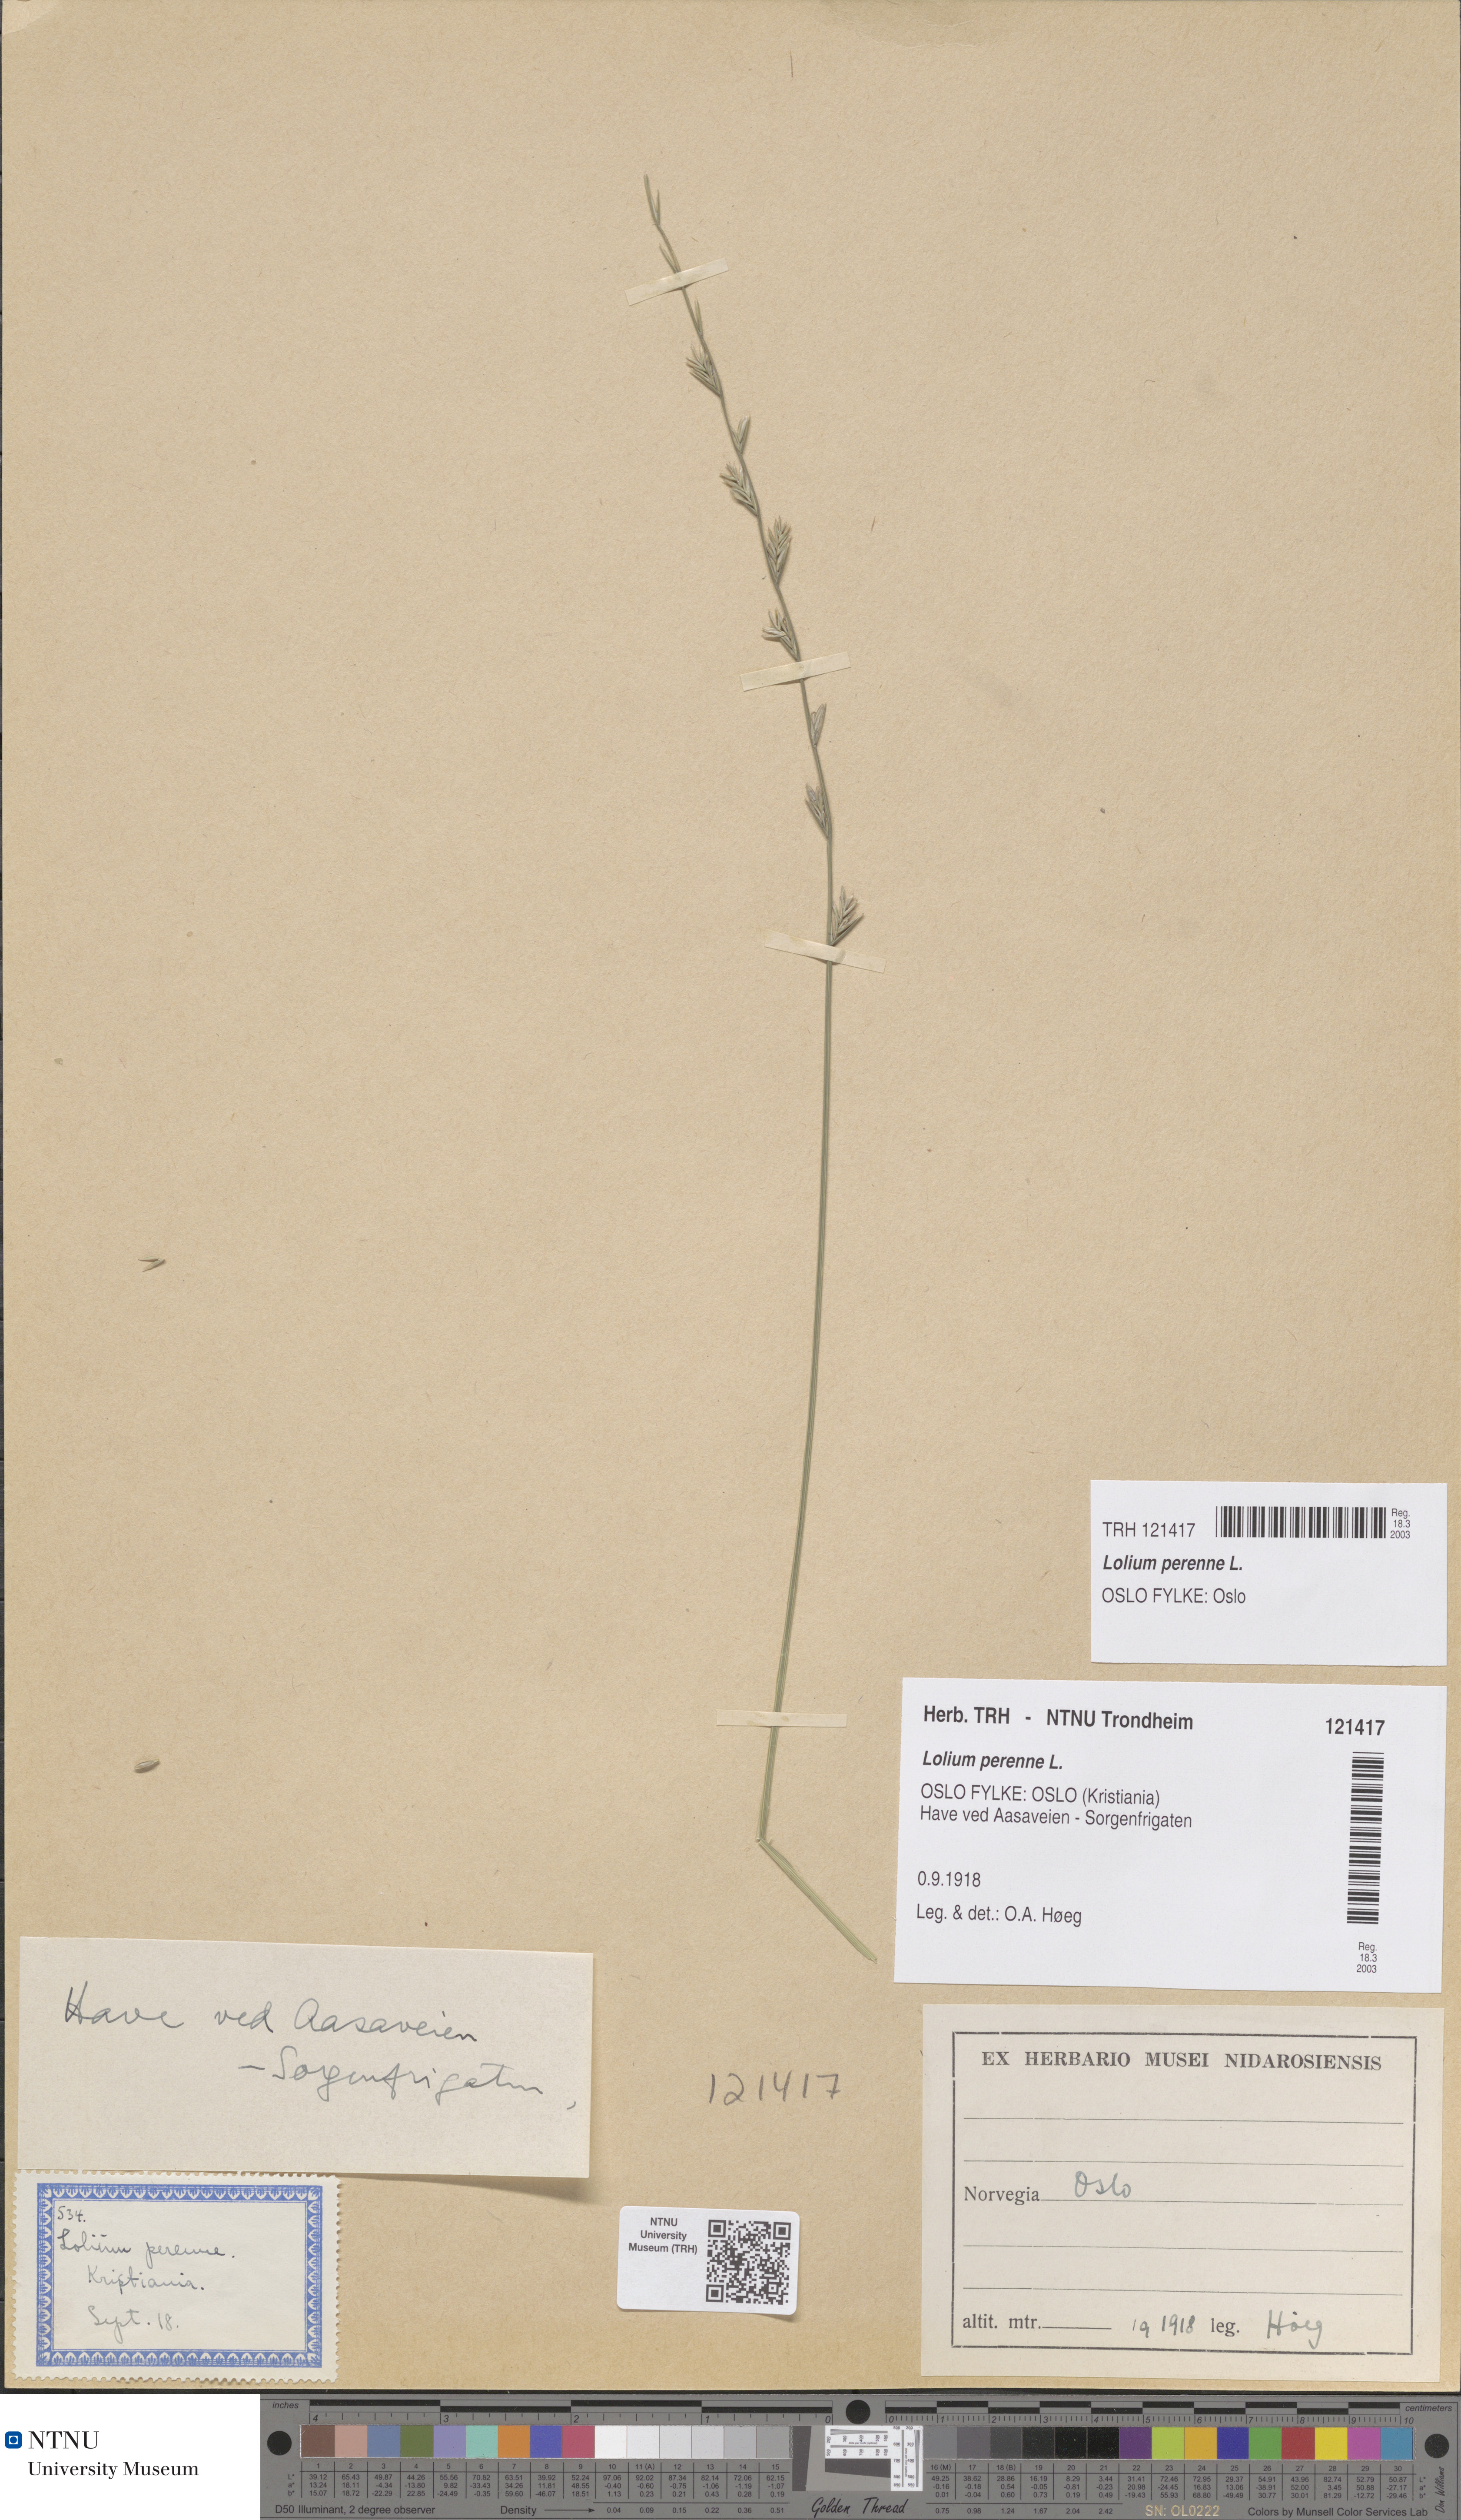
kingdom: Plantae
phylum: Tracheophyta
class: Liliopsida
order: Poales
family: Poaceae
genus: Lolium
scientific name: Lolium perenne
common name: Perennial ryegrass
